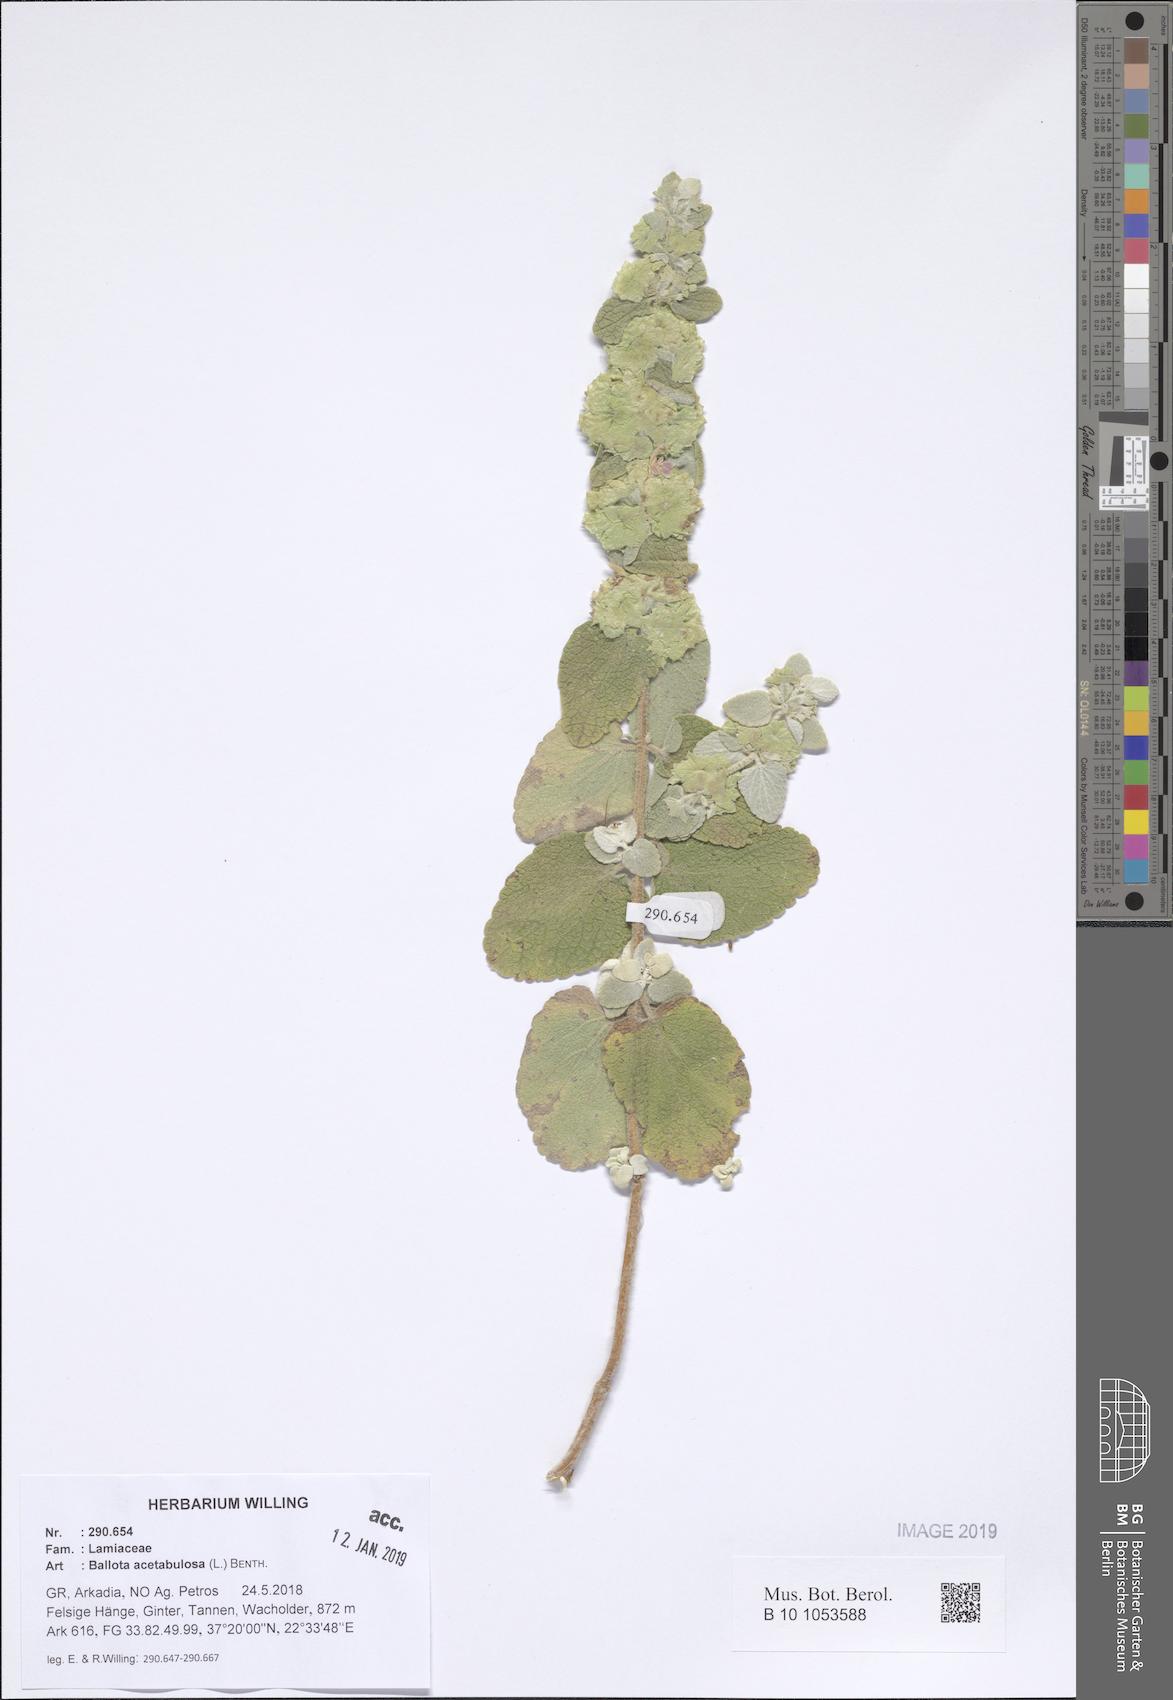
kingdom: Plantae
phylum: Tracheophyta
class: Magnoliopsida
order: Lamiales
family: Lamiaceae
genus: Pseudodictamnus
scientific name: Pseudodictamnus acetabulosus
